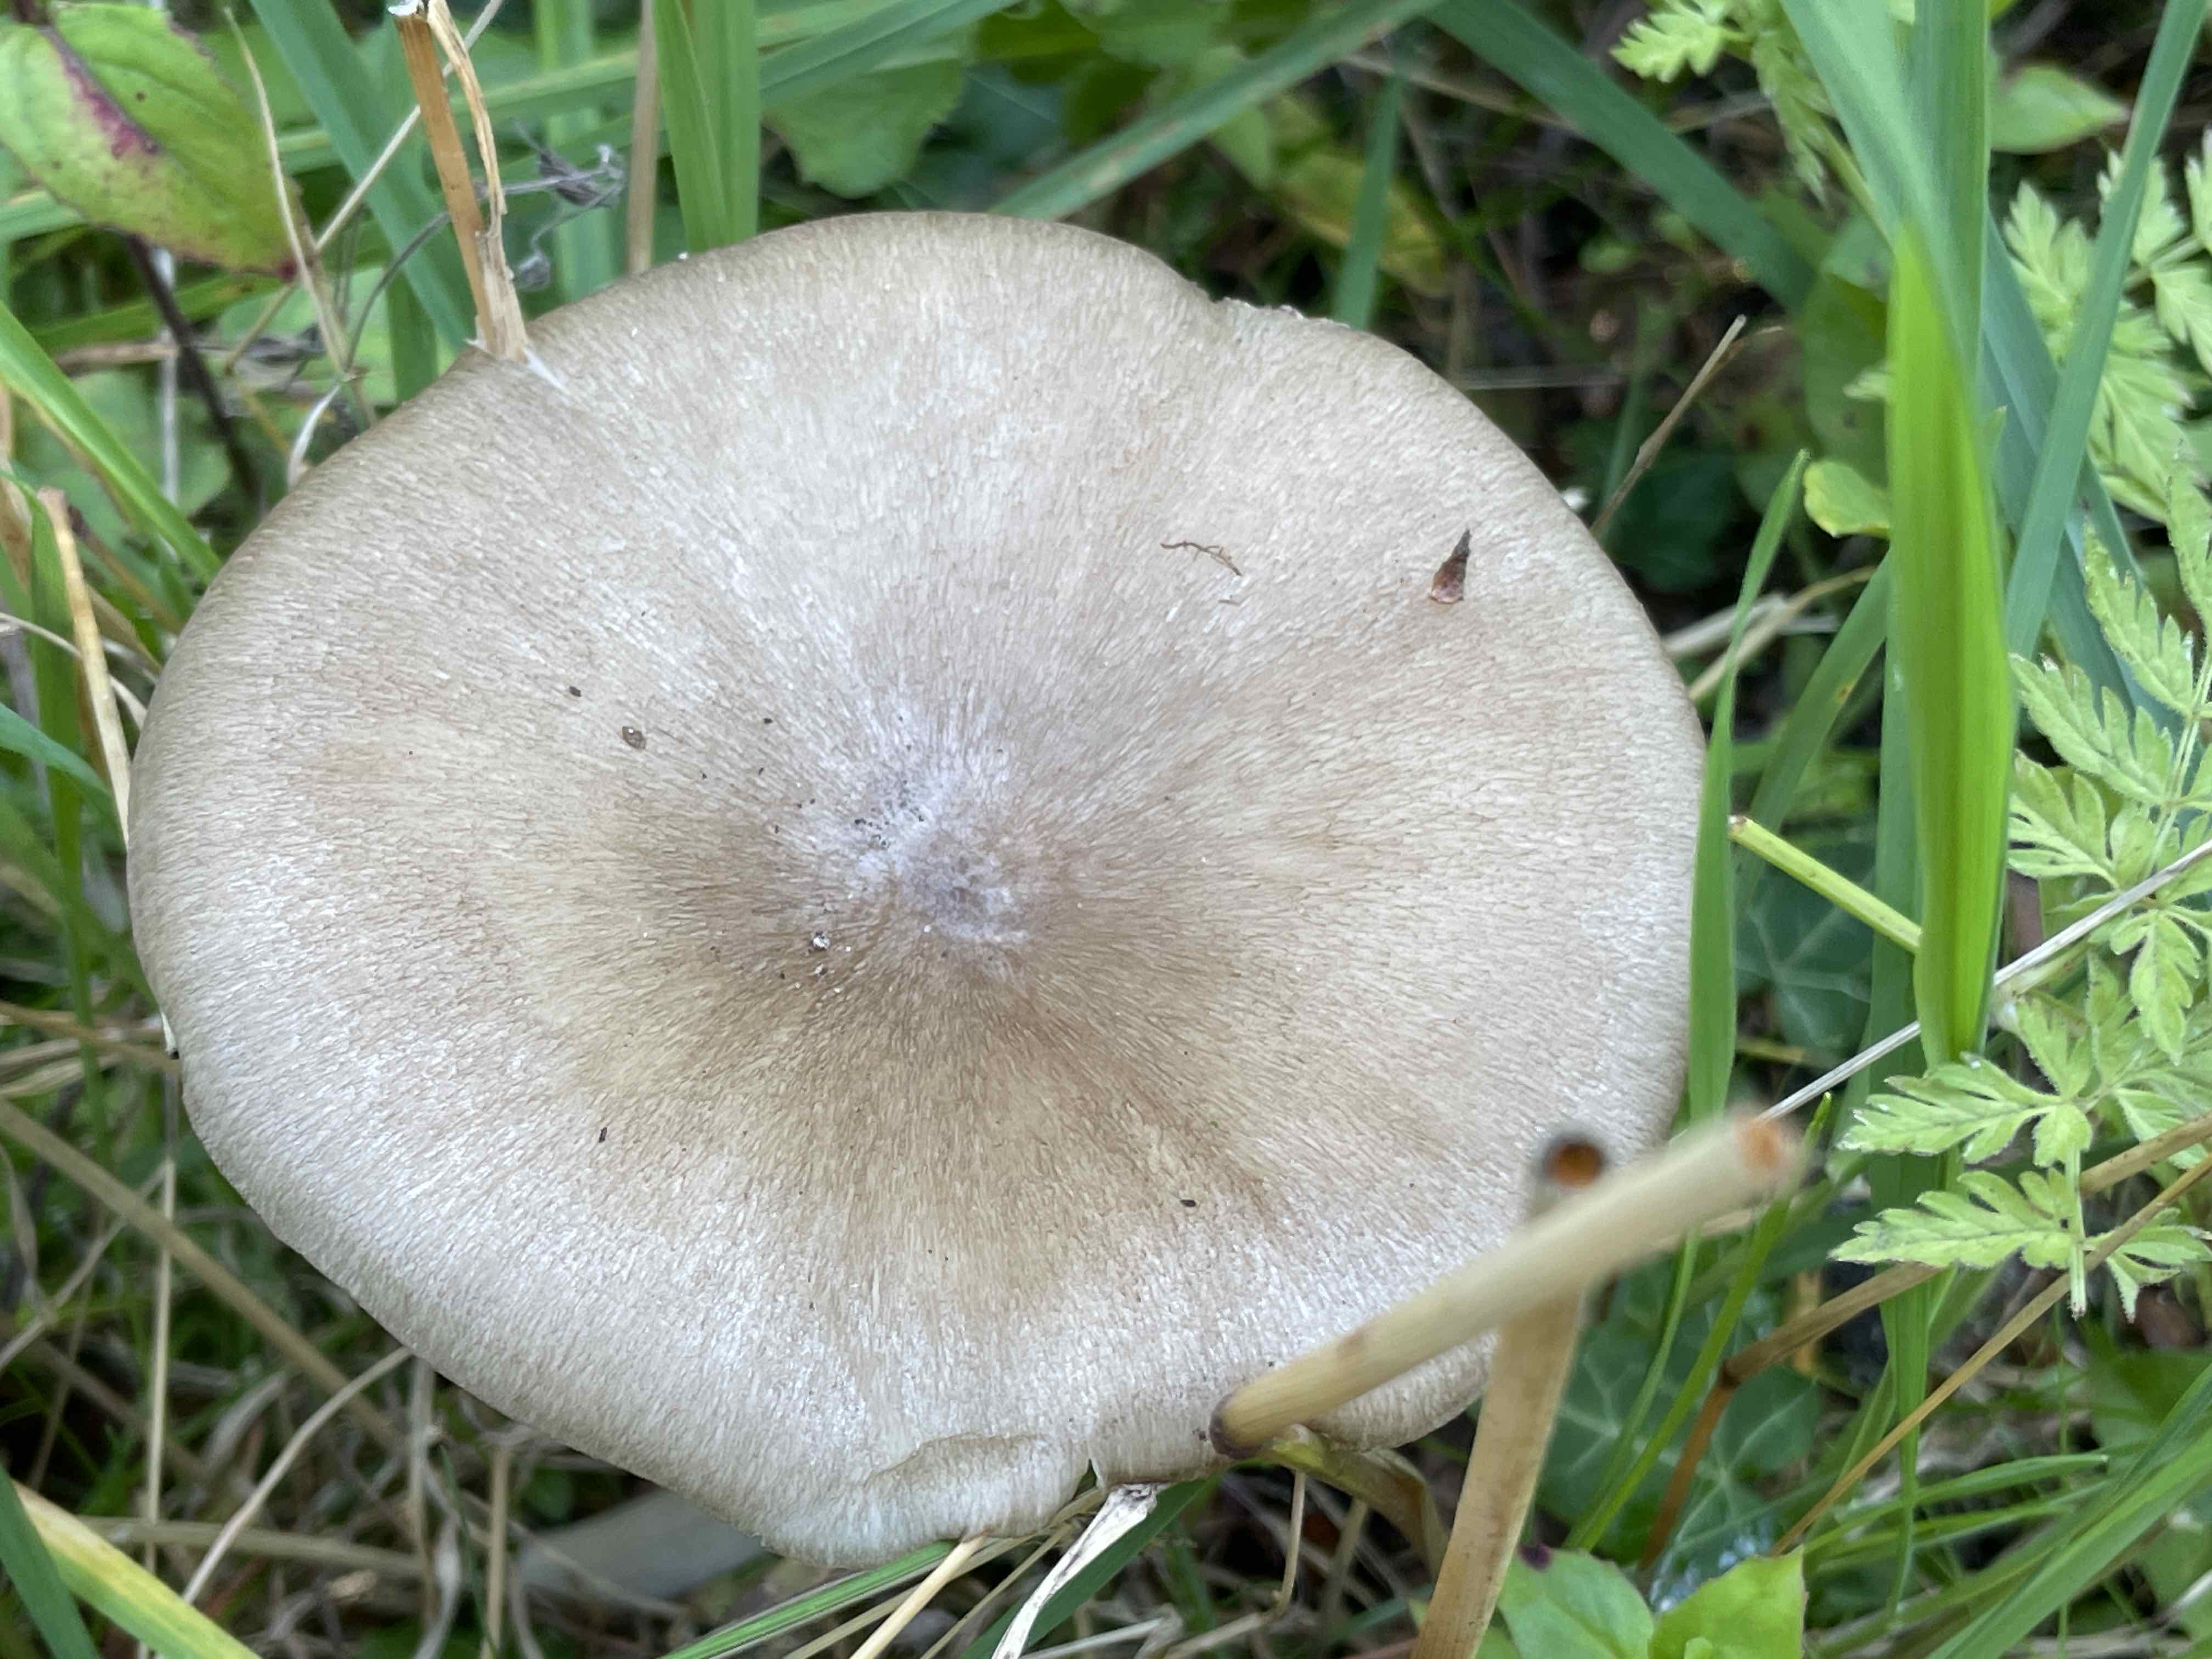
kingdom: Fungi
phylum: Basidiomycota
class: Agaricomycetes
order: Agaricales
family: Tricholomataceae
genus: Megacollybia
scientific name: Megacollybia platyphylla
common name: bredbladet væbnerhat
